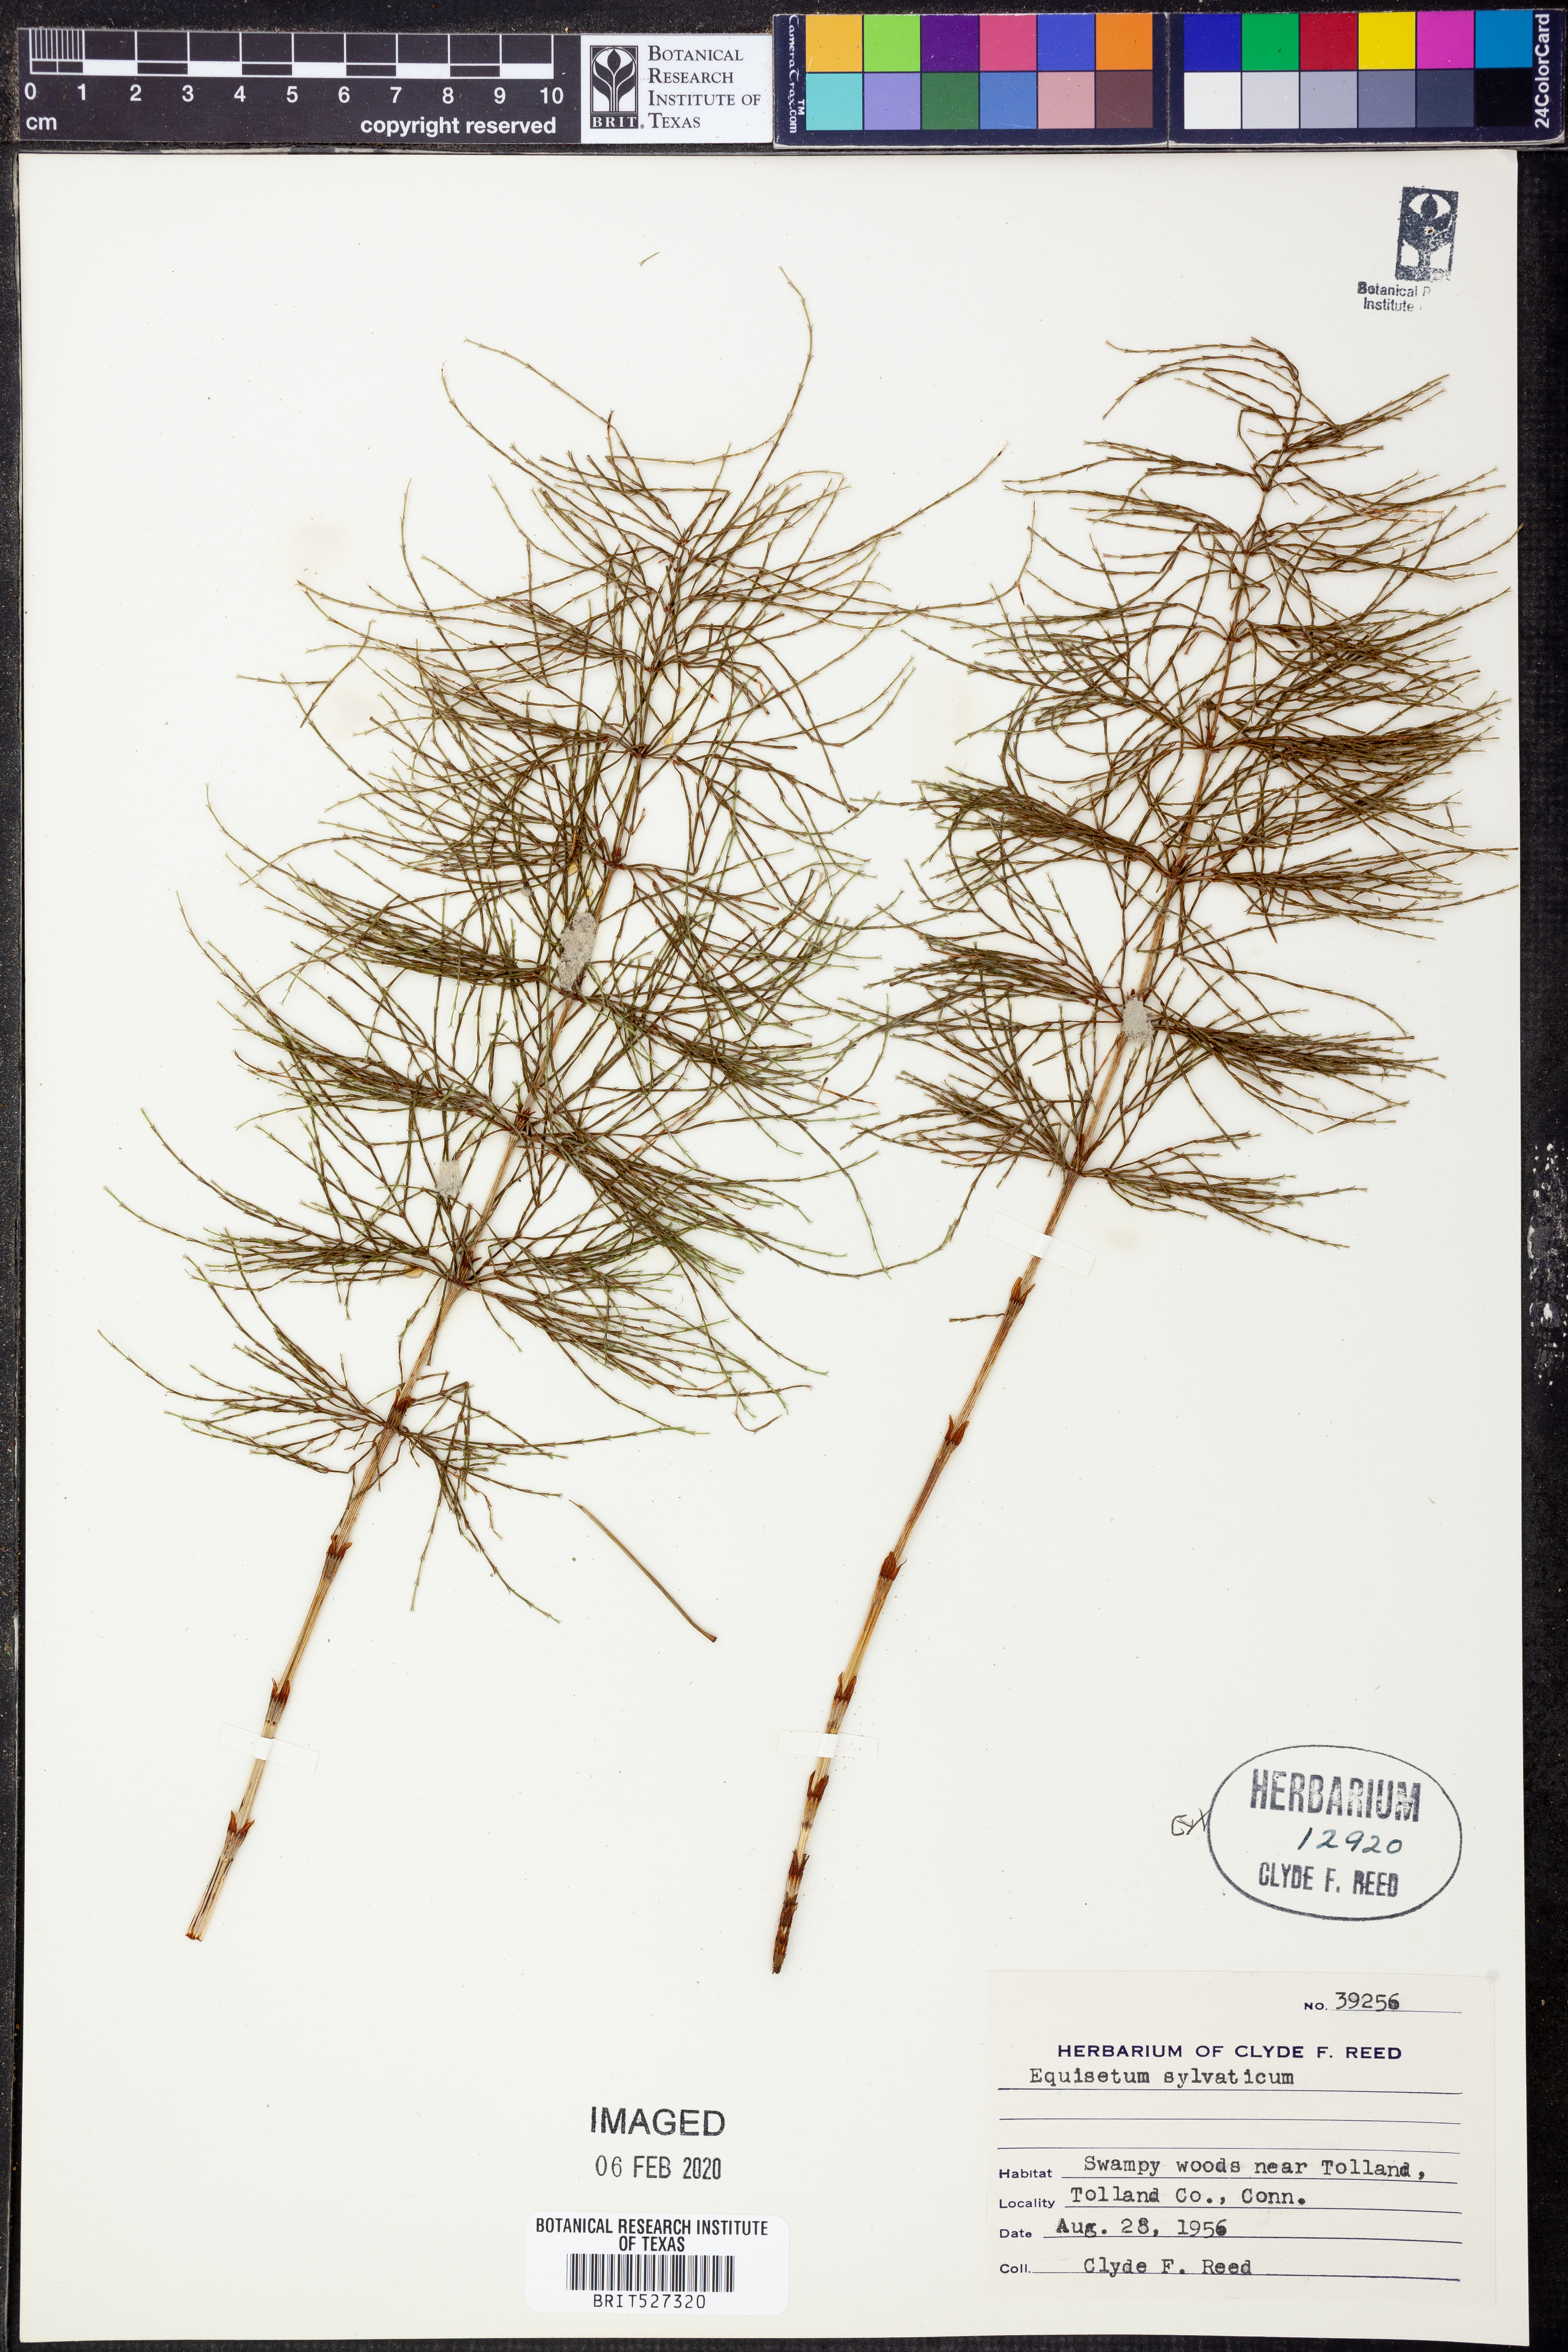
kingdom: Plantae
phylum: Tracheophyta
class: Polypodiopsida
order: Equisetales
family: Equisetaceae
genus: Equisetum
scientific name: Equisetum sylvaticum
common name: Wood horsetail
